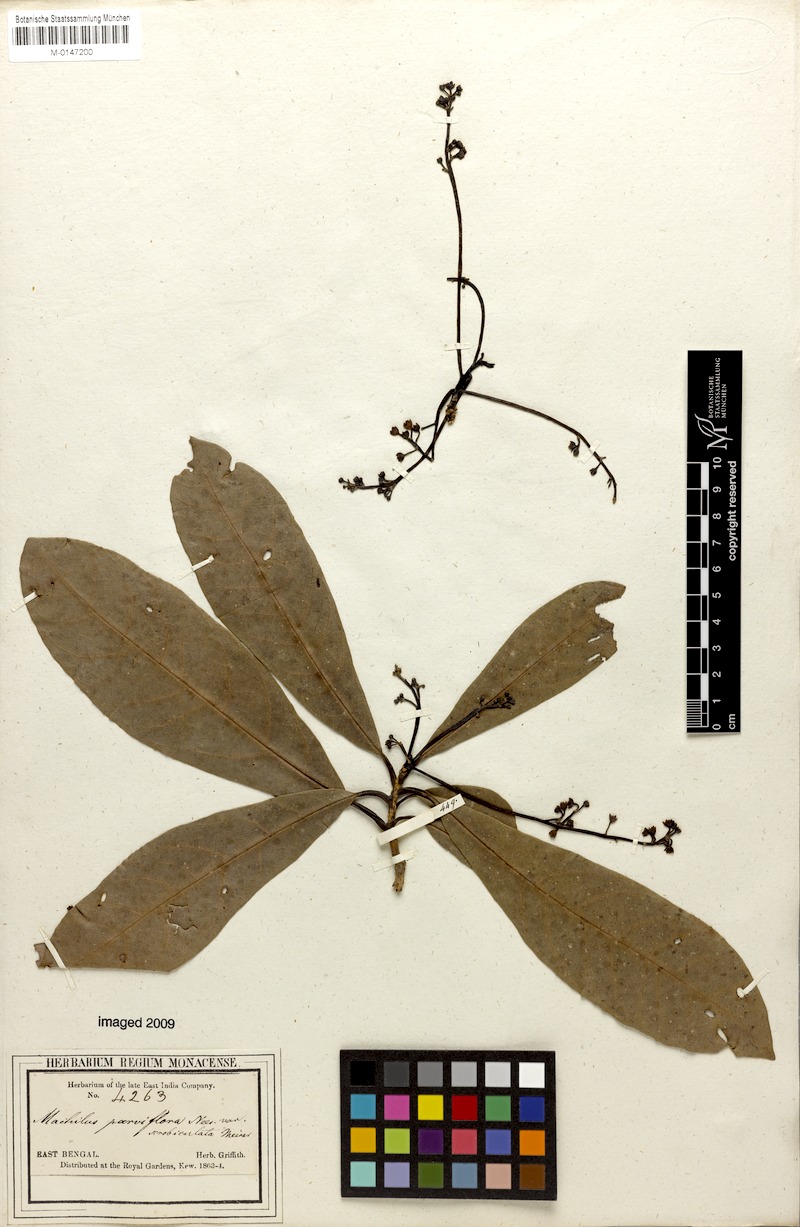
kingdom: Plantae
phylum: Tracheophyta
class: Magnoliopsida
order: Laurales
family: Lauraceae
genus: Machilus
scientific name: Machilus parviflora
